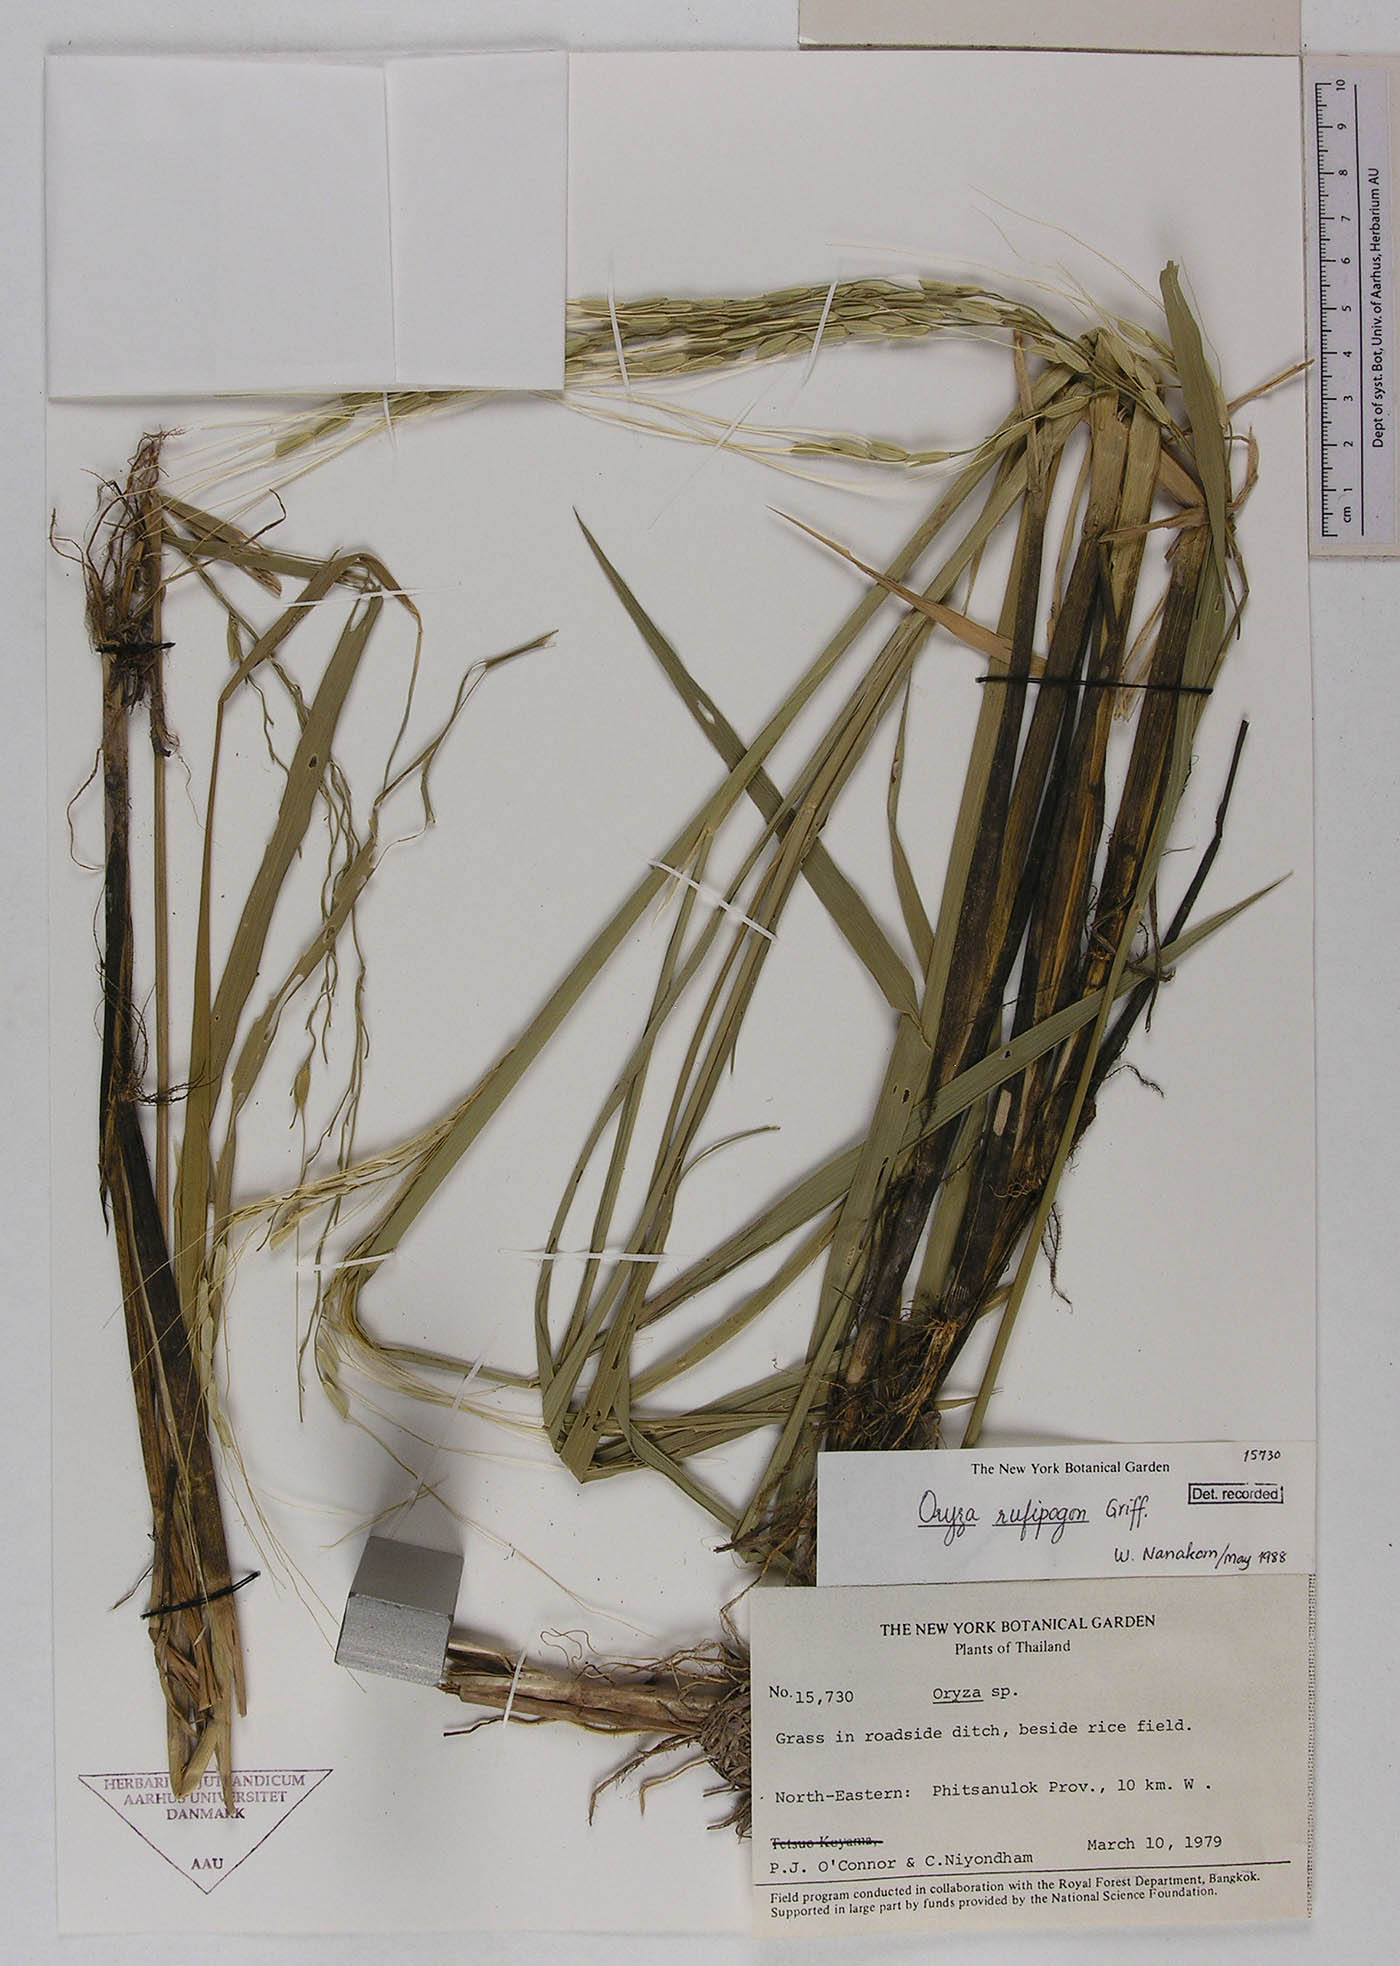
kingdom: Plantae
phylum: Tracheophyta
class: Liliopsida
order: Poales
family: Poaceae
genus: Oryza
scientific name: Oryza rufipogon
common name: Red rice
